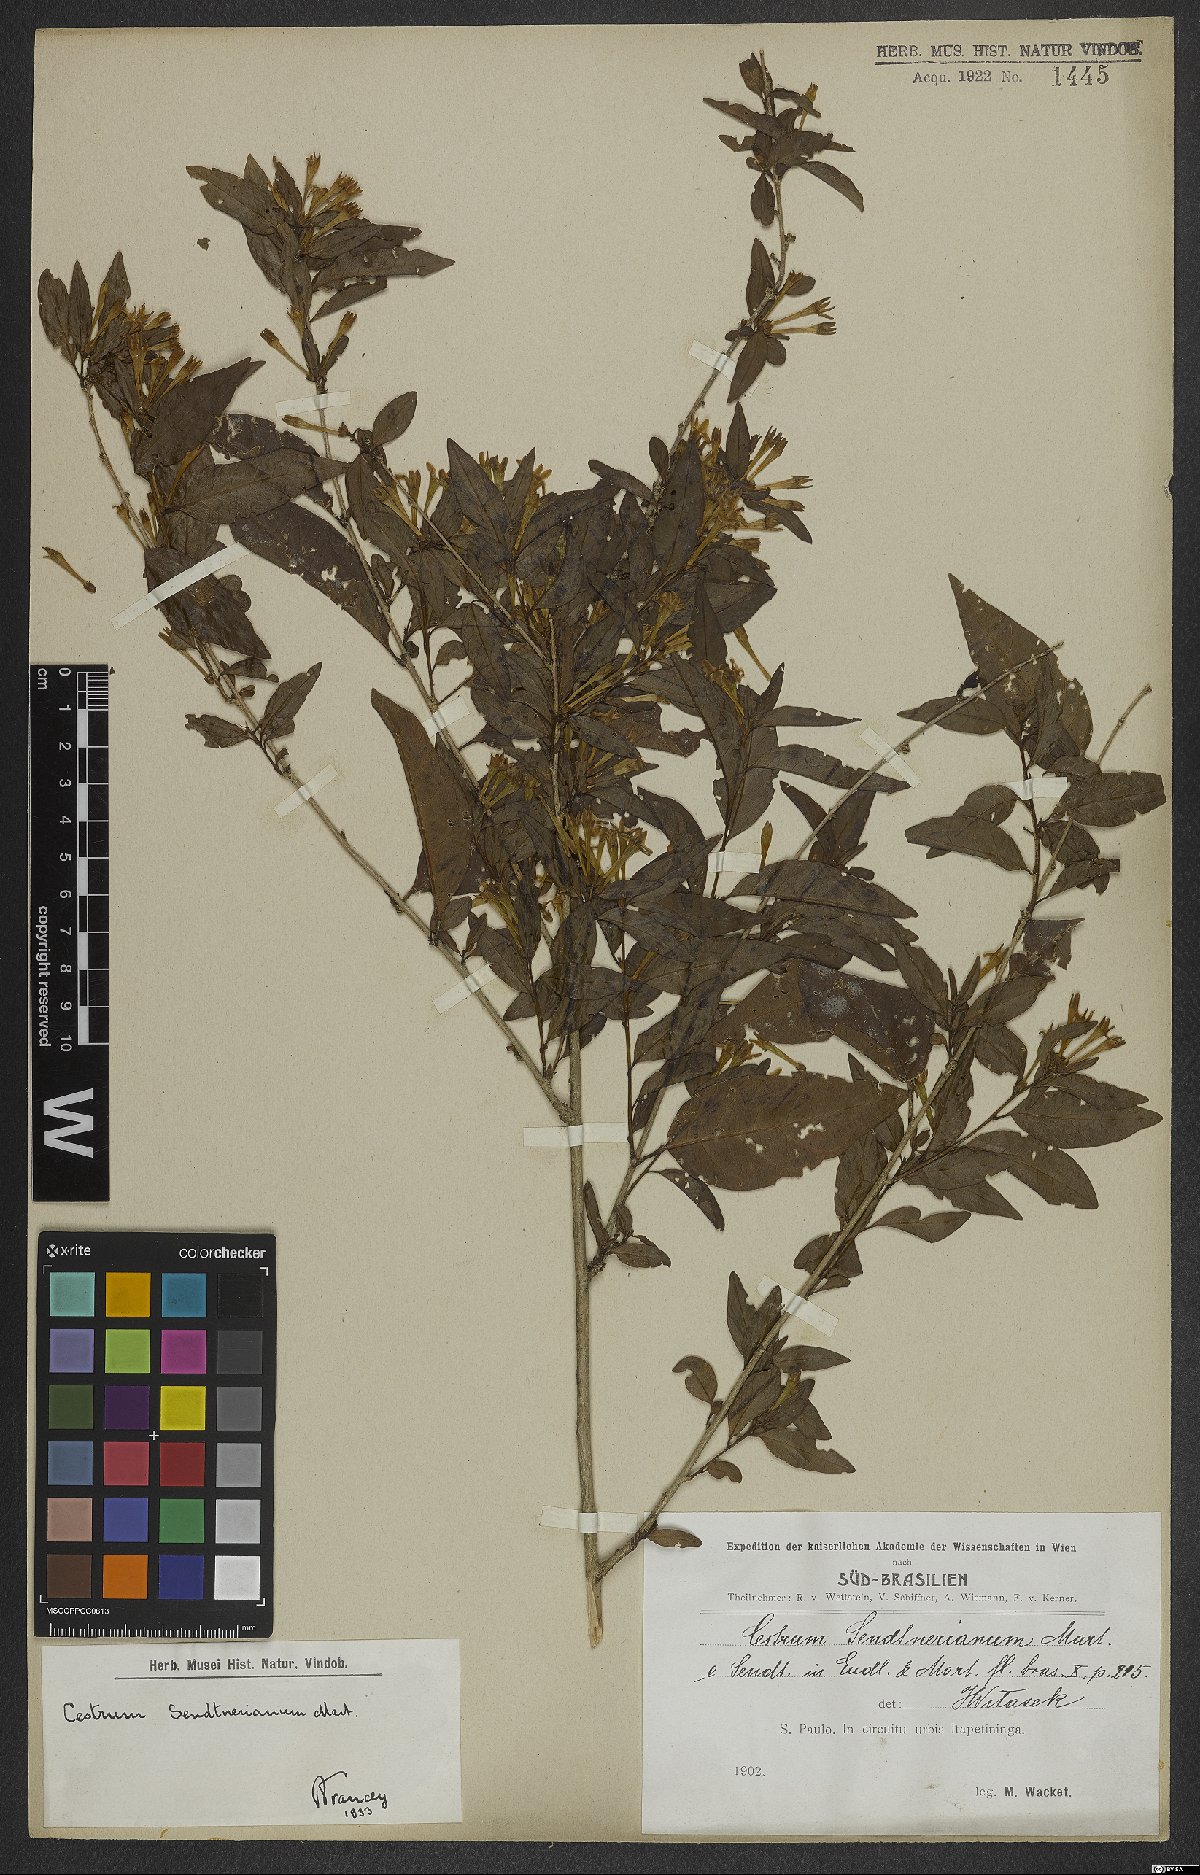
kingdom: Plantae
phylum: Tracheophyta
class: Magnoliopsida
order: Solanales
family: Solanaceae
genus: Cestrum
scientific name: Cestrum mariquitense
